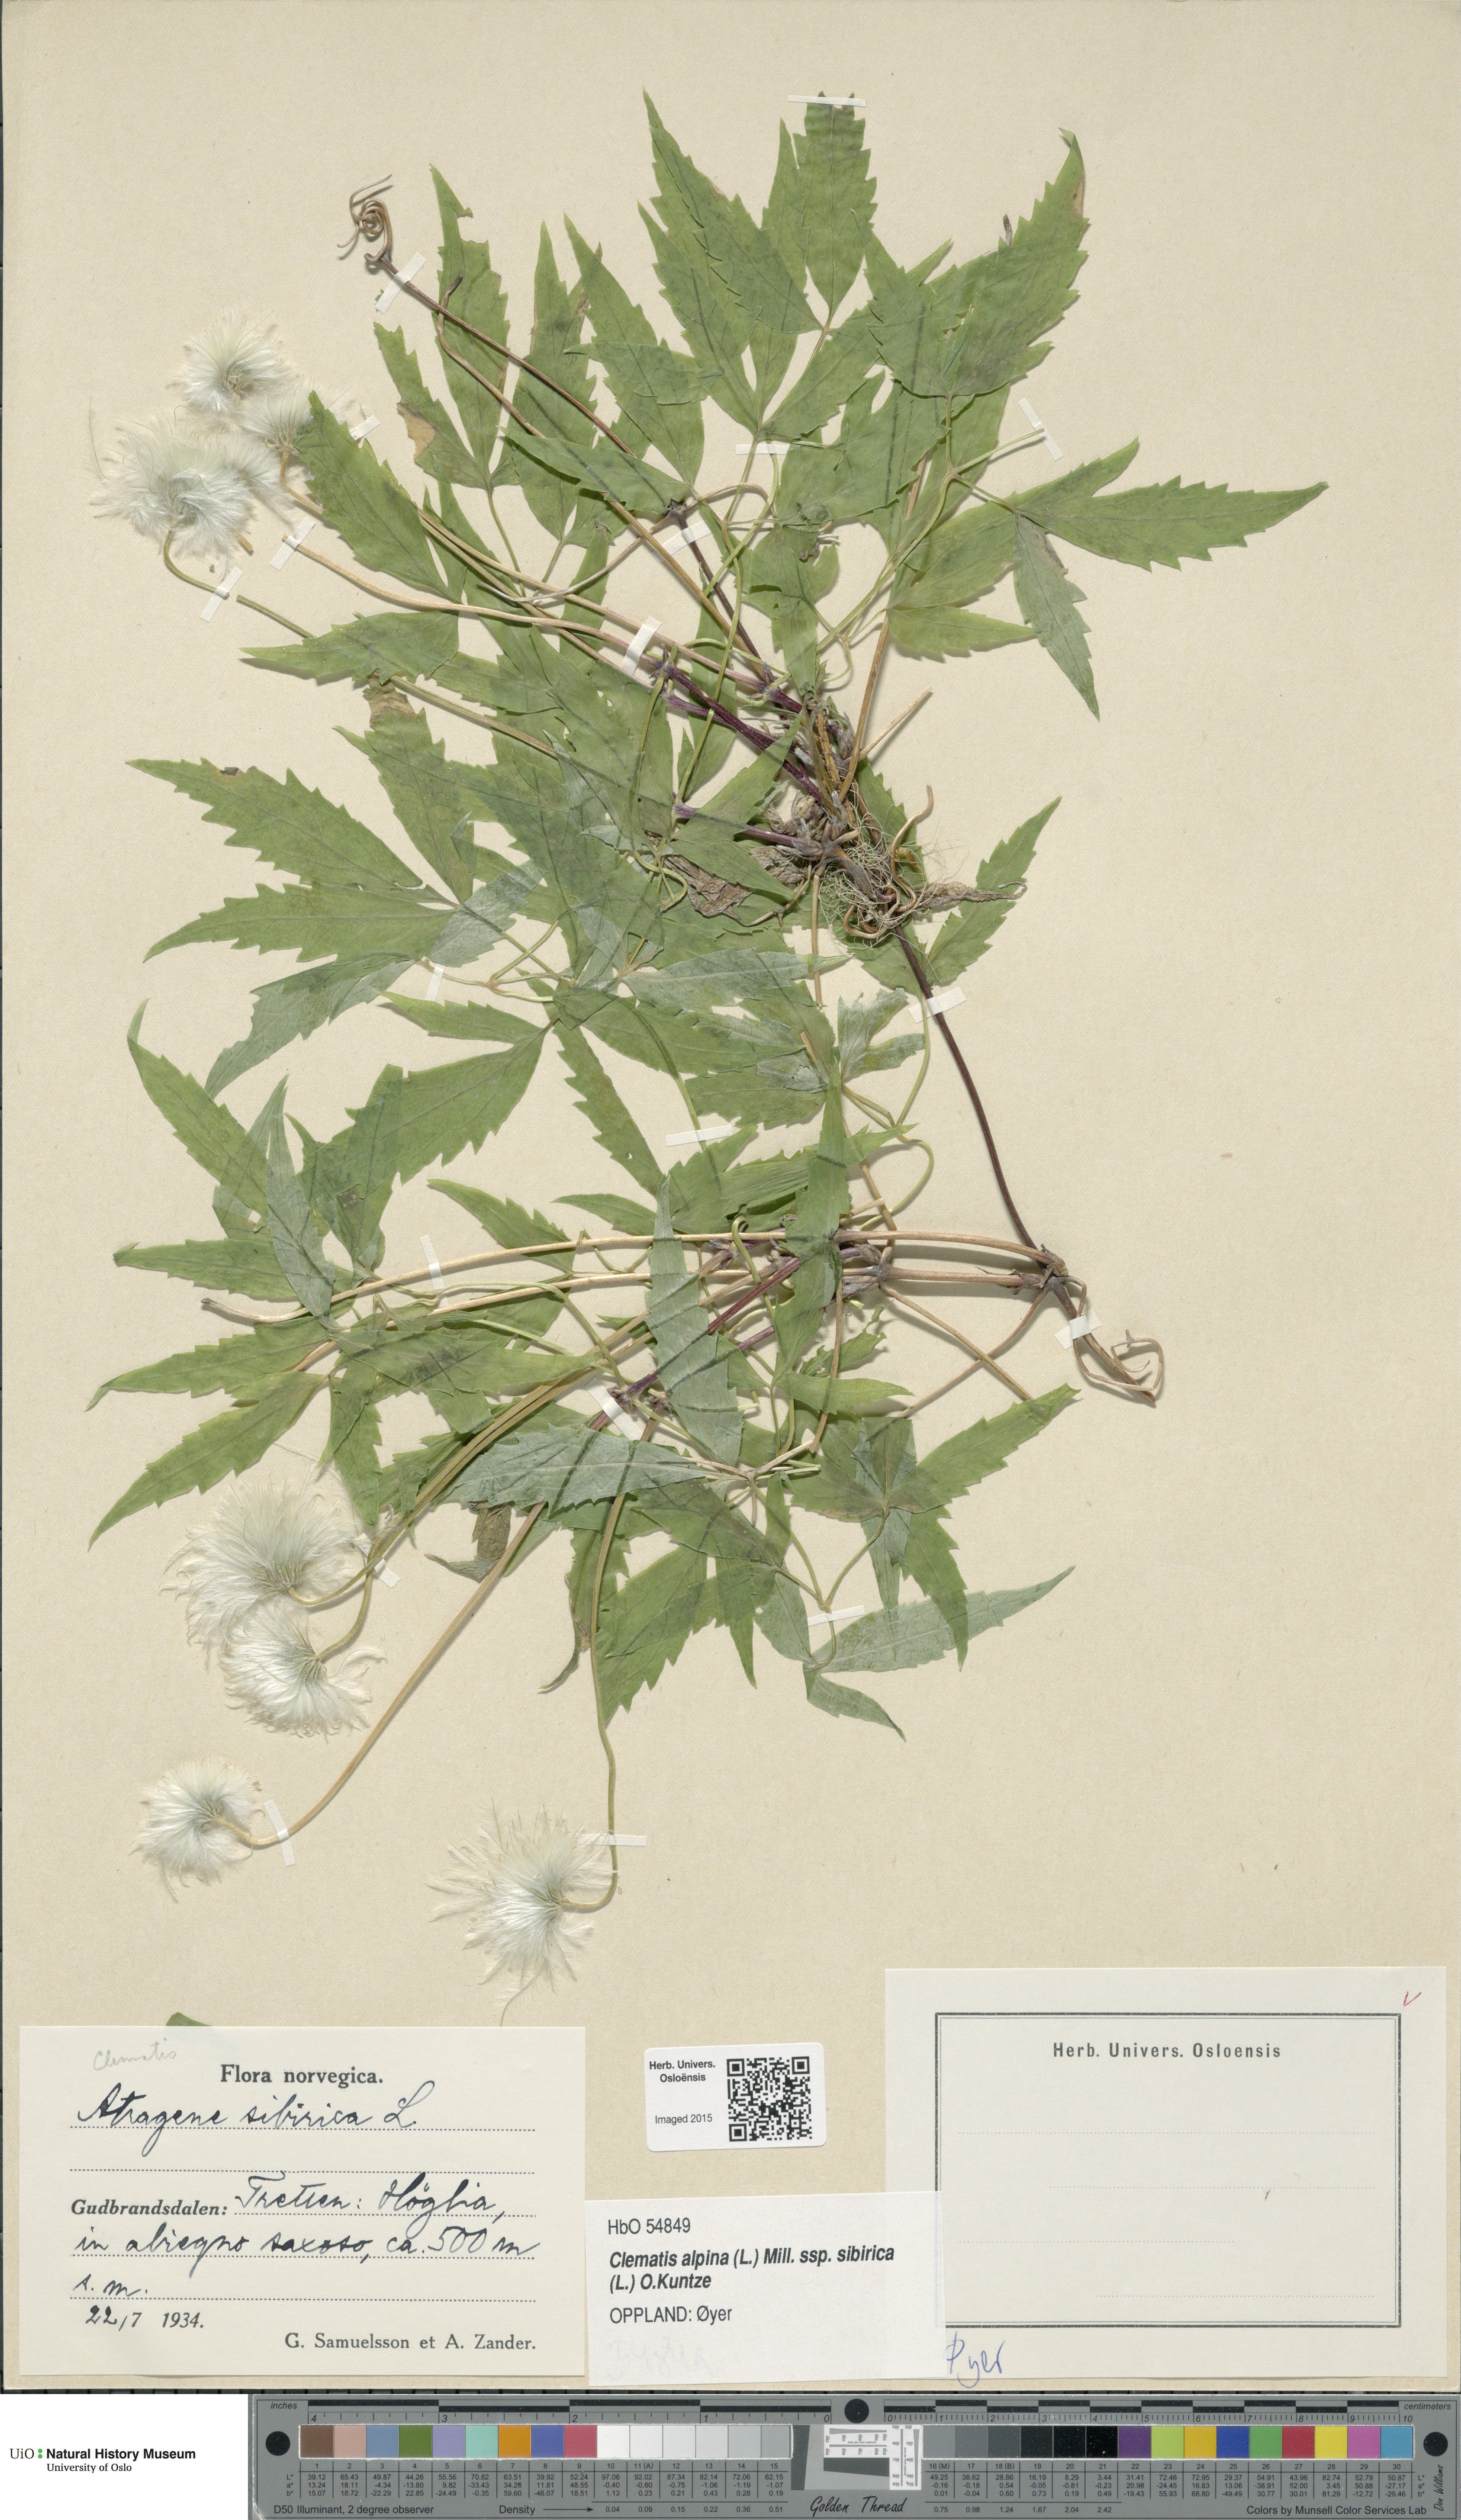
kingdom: Plantae
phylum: Tracheophyta
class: Magnoliopsida
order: Ranunculales
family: Ranunculaceae
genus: Clematis
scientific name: Clematis sibirica
